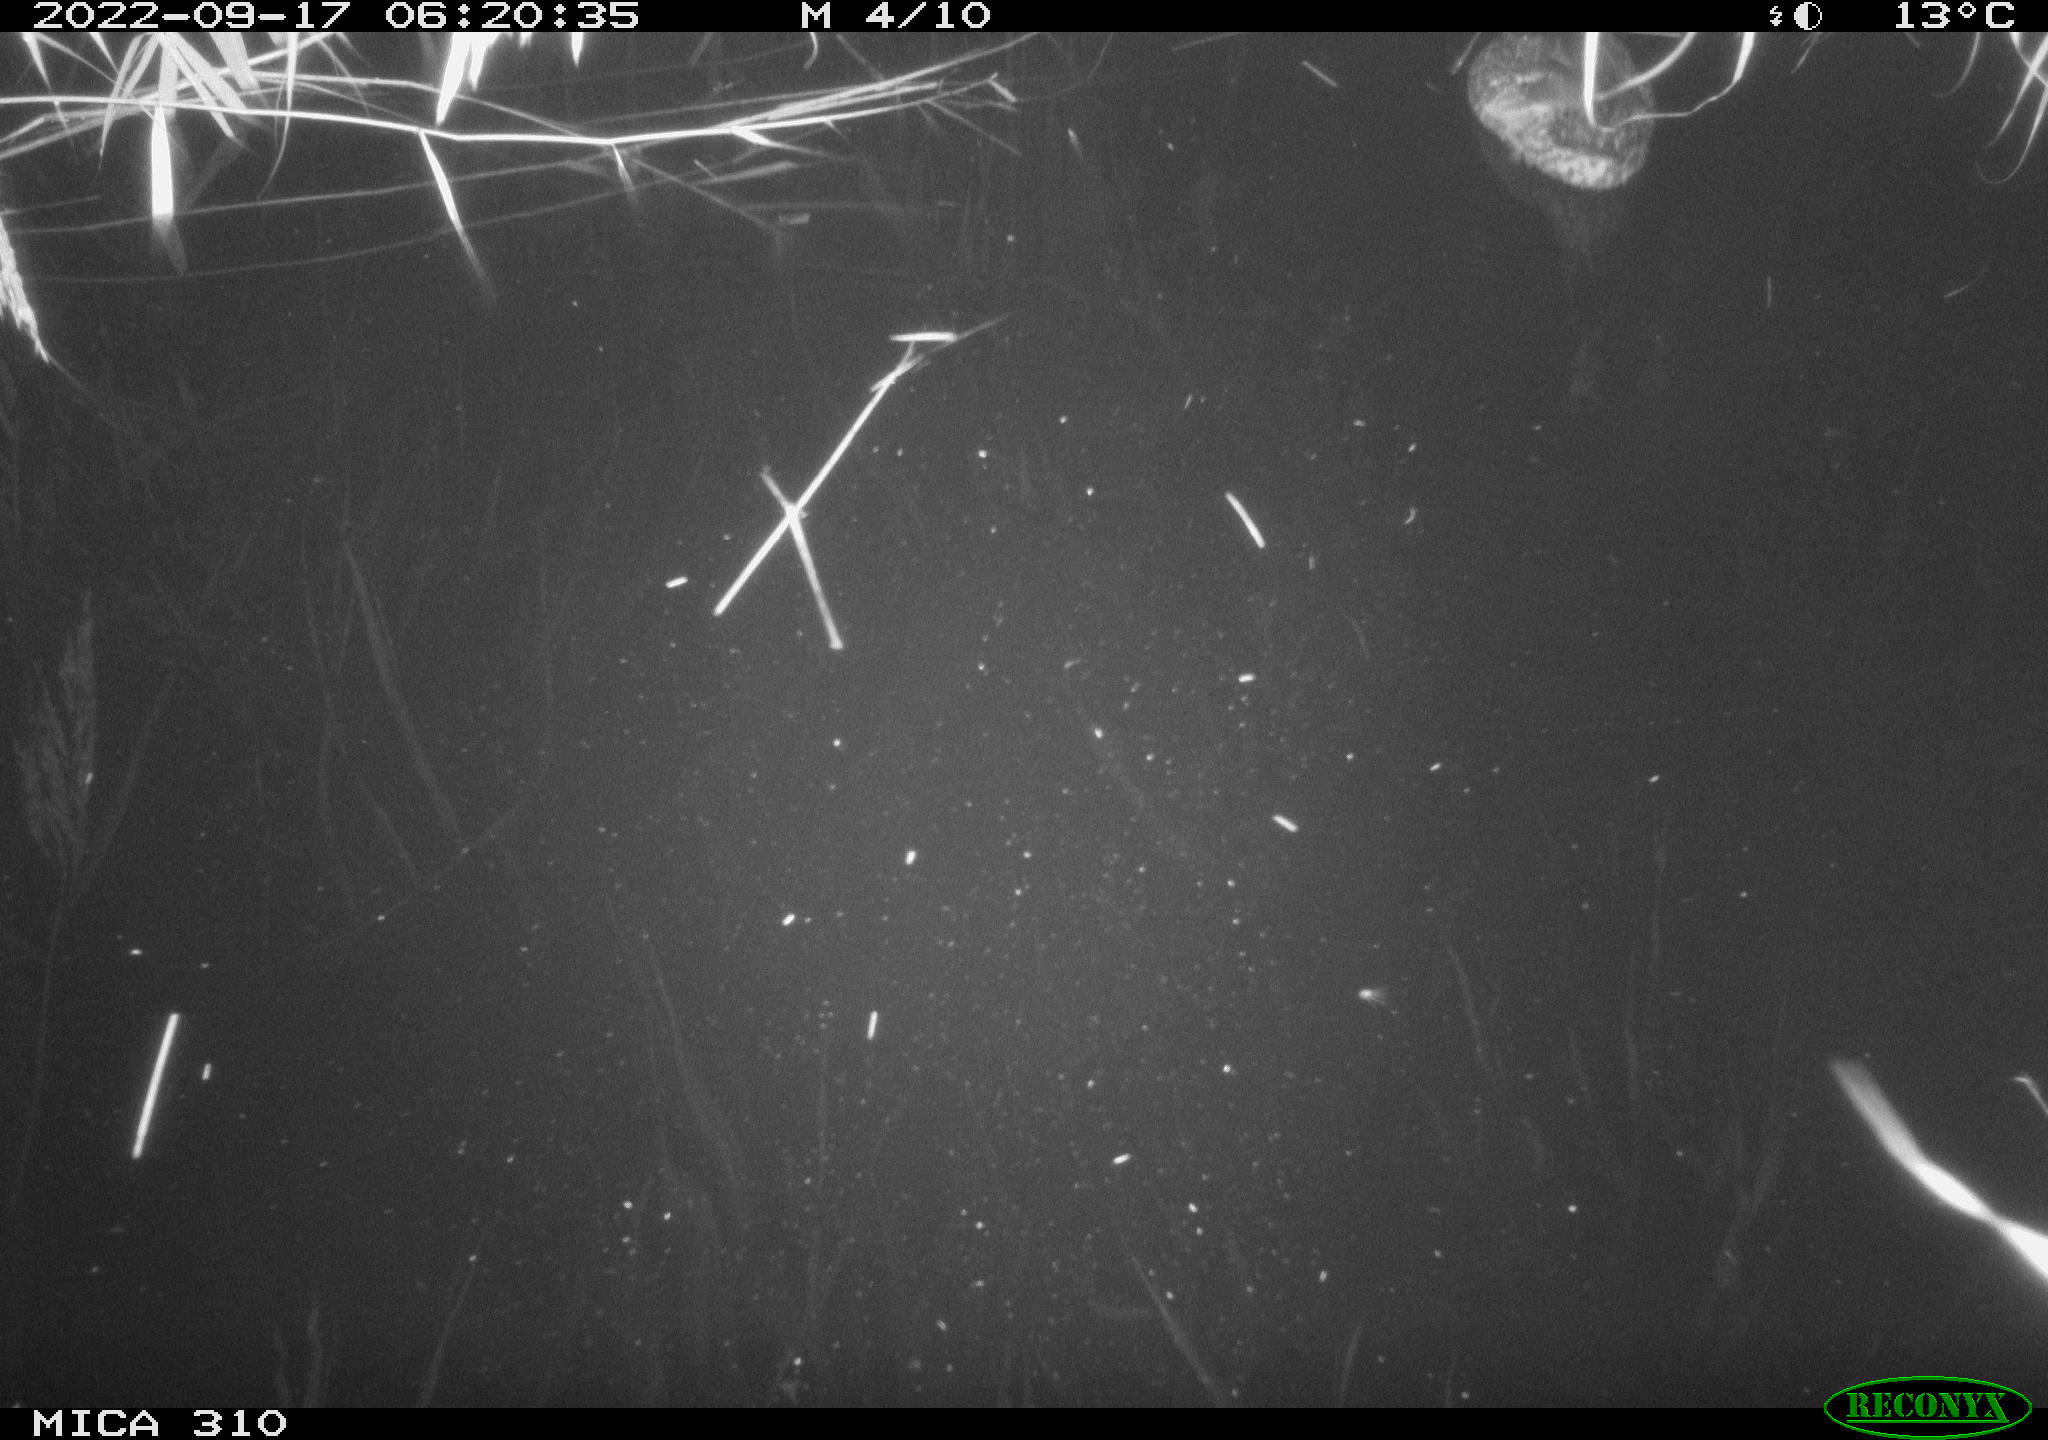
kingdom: Animalia
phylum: Chordata
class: Aves
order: Gruiformes
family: Rallidae
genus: Fulica
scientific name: Fulica atra
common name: Eurasian coot
